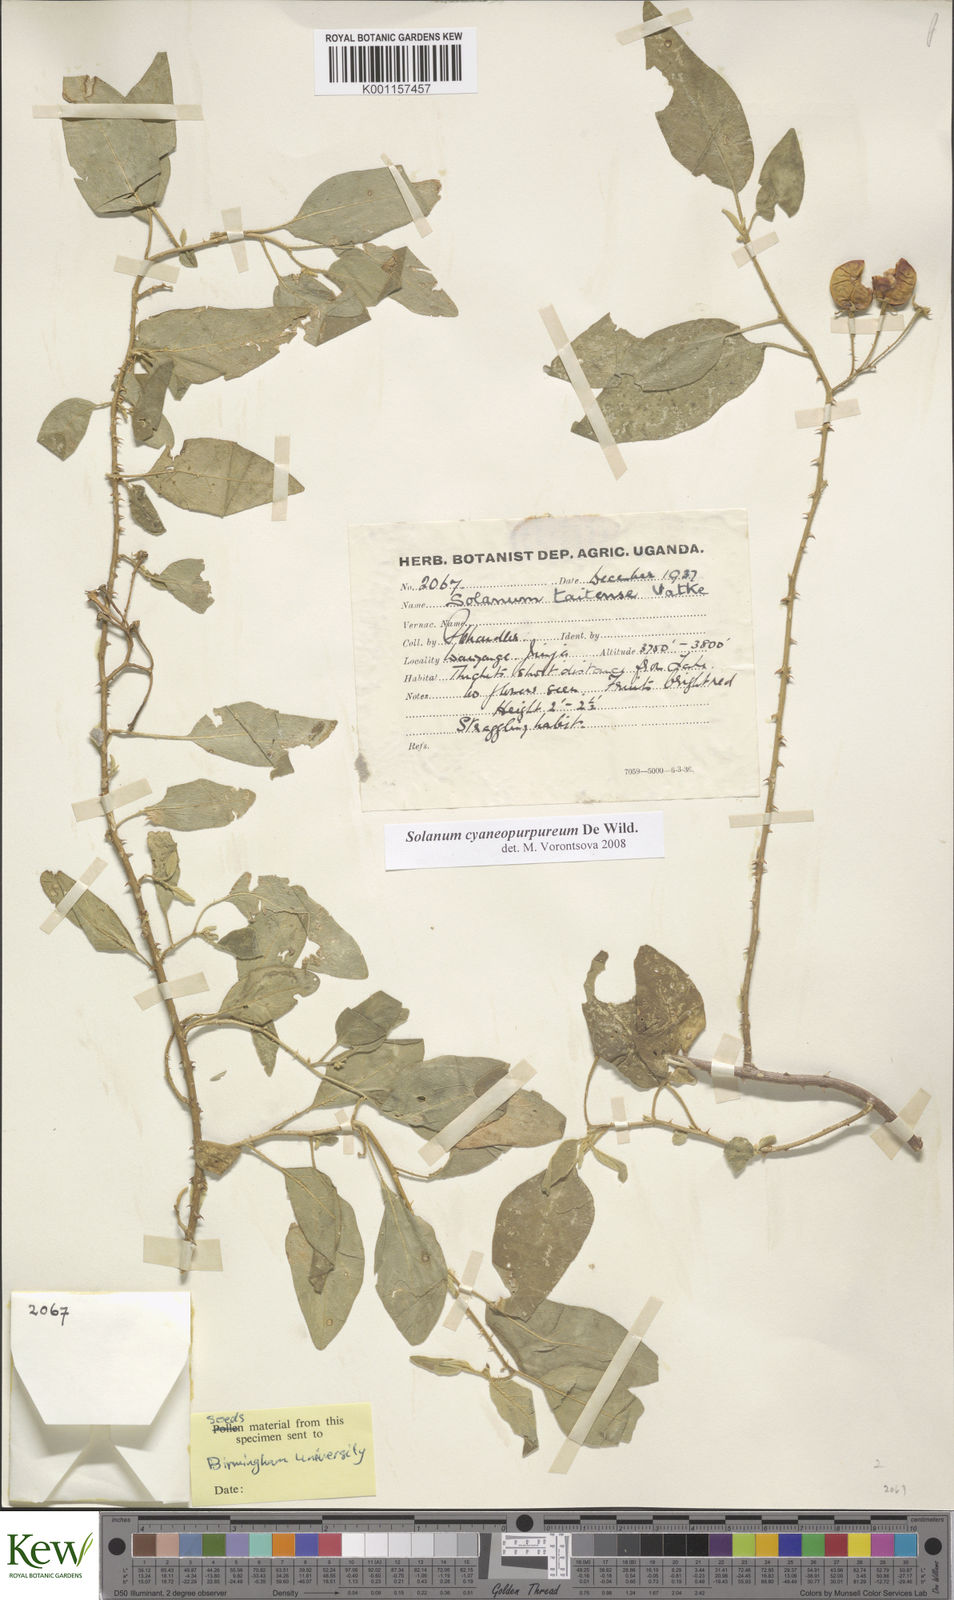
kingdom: Plantae
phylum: Tracheophyta
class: Magnoliopsida
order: Solanales
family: Solanaceae
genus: Solanum
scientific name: Solanum cyaneopurpureum
